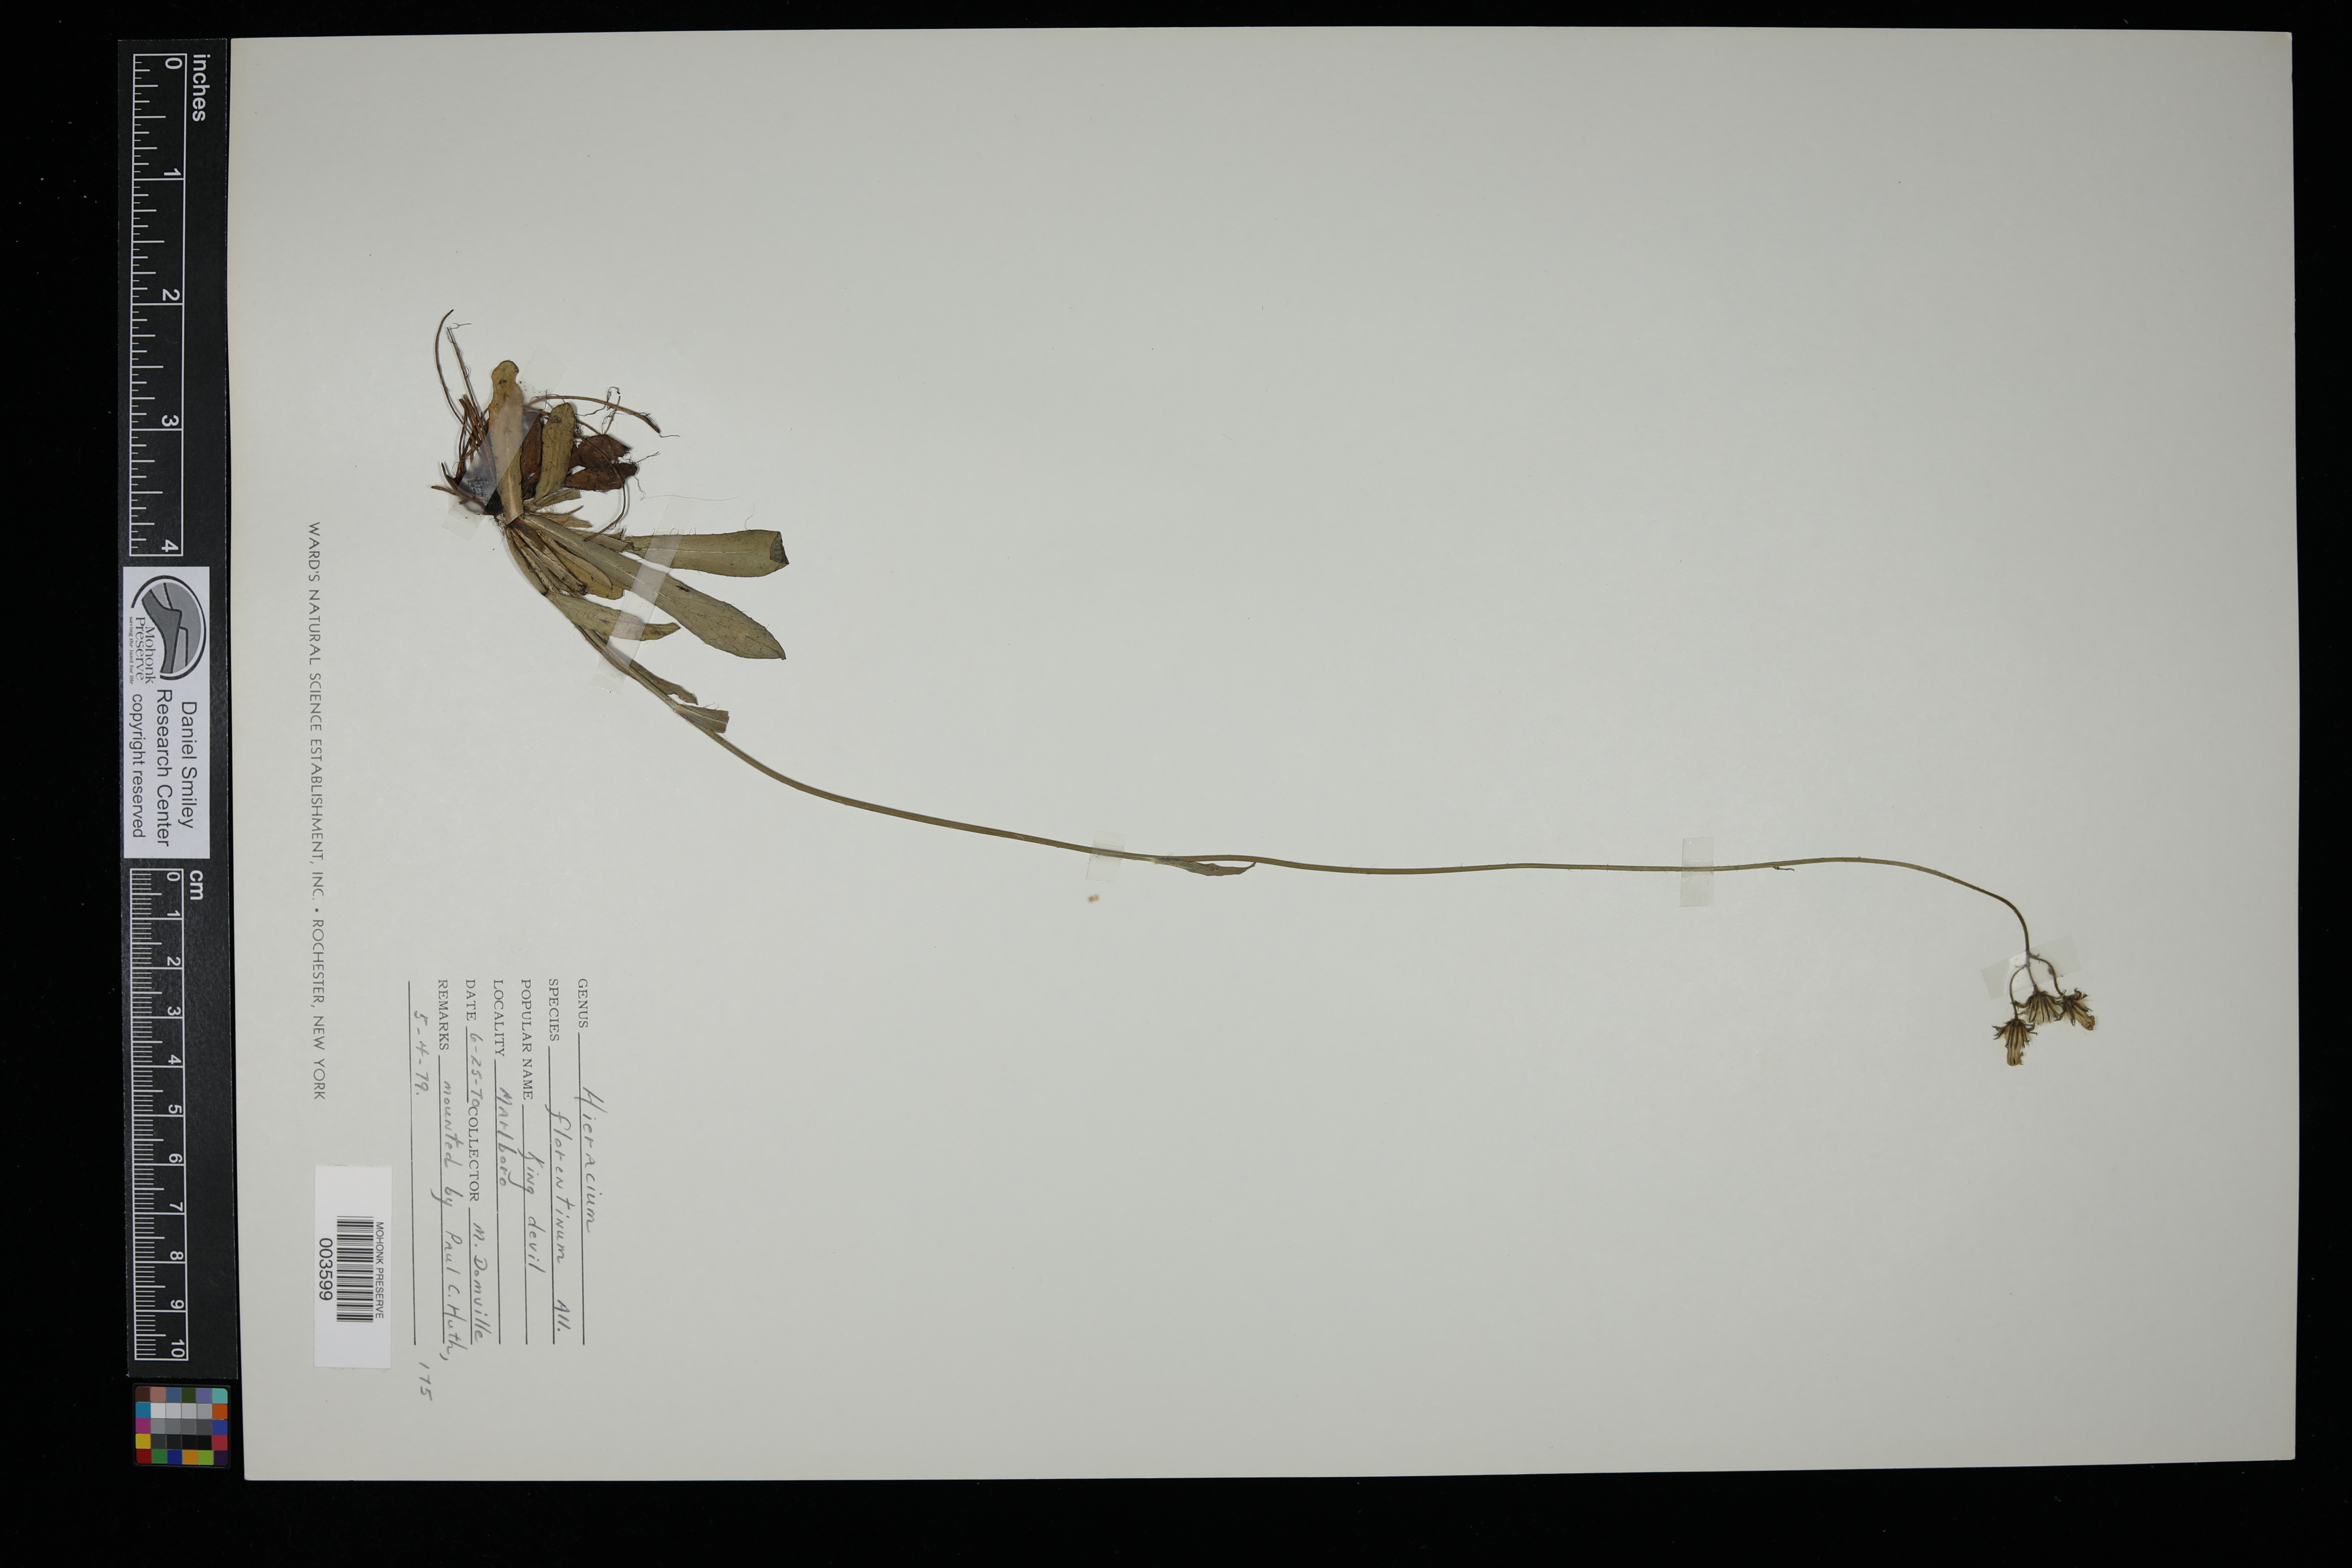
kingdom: Plantae
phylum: Tracheophyta
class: Magnoliopsida
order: Asterales
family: Asteraceae
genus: Pilosella
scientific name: Pilosella piloselloides
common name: Glaucous king-devil
